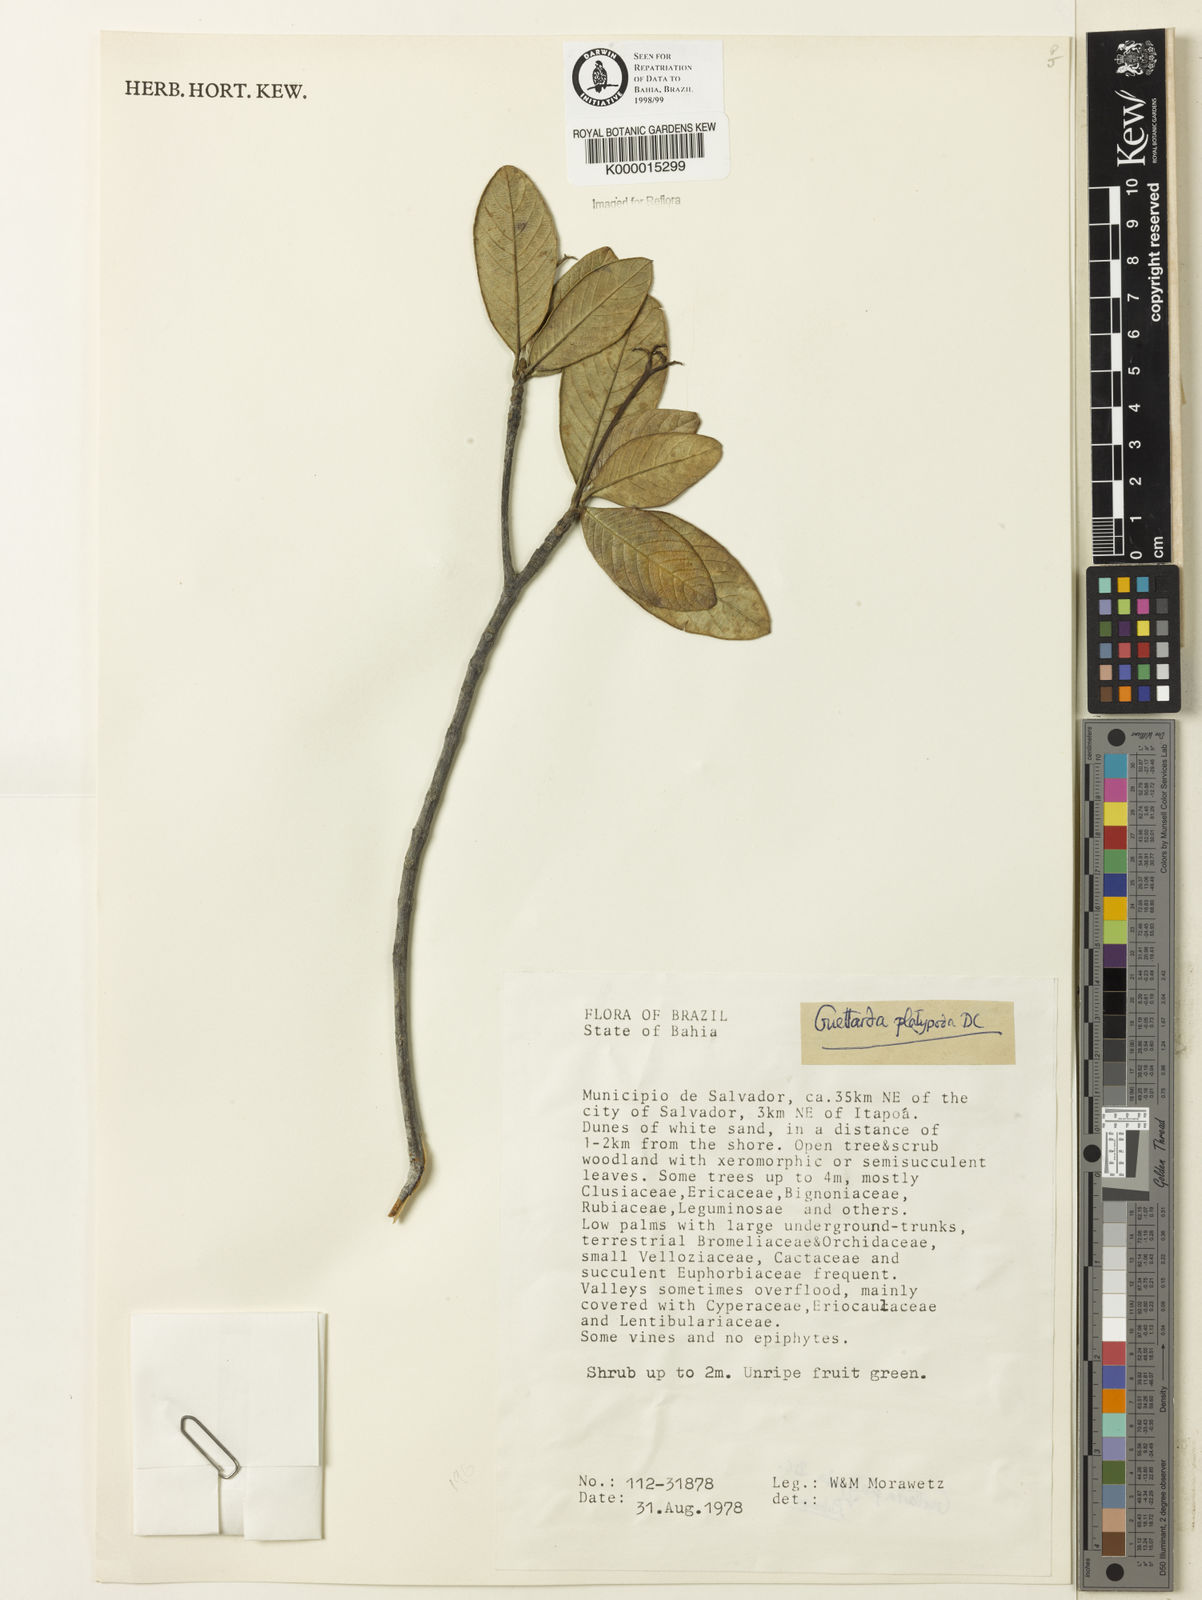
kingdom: Plantae
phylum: Tracheophyta
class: Magnoliopsida
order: Gentianales
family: Rubiaceae
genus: Guettarda
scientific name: Guettarda platypoda
